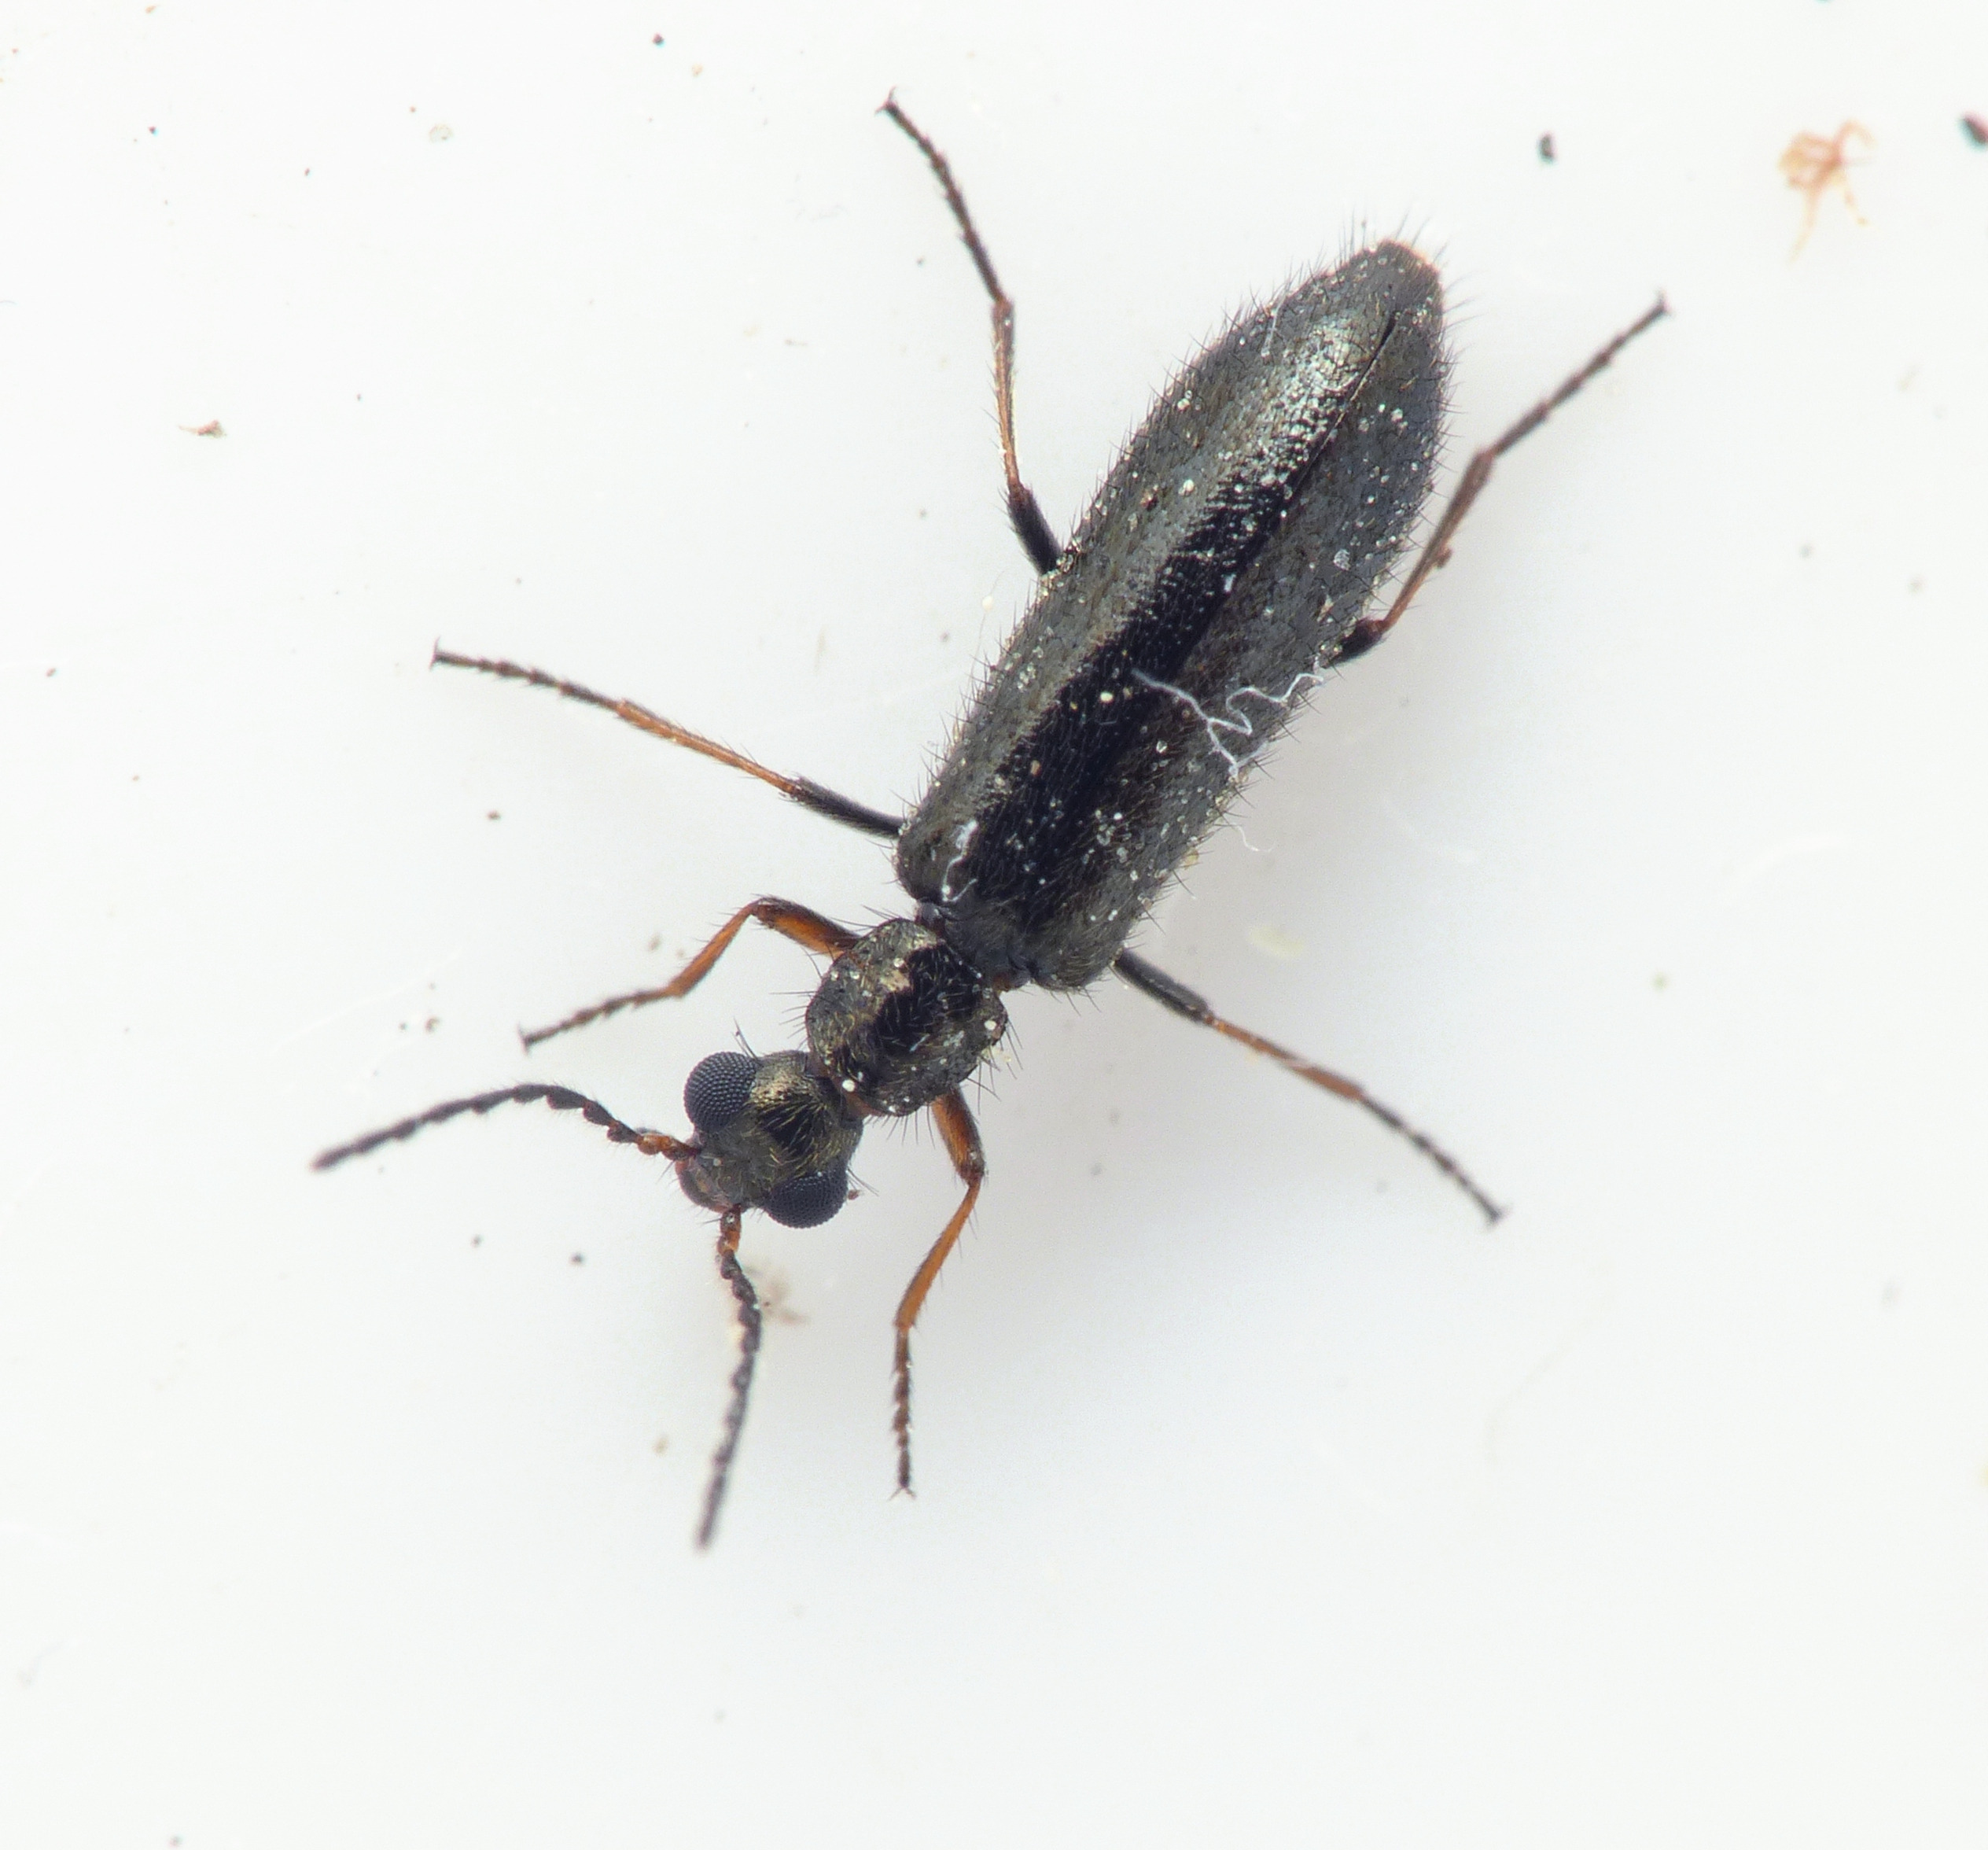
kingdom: Animalia
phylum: Arthropoda
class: Insecta
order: Coleoptera
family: Melyridae
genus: Dasytes
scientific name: Dasytes plumbeus
